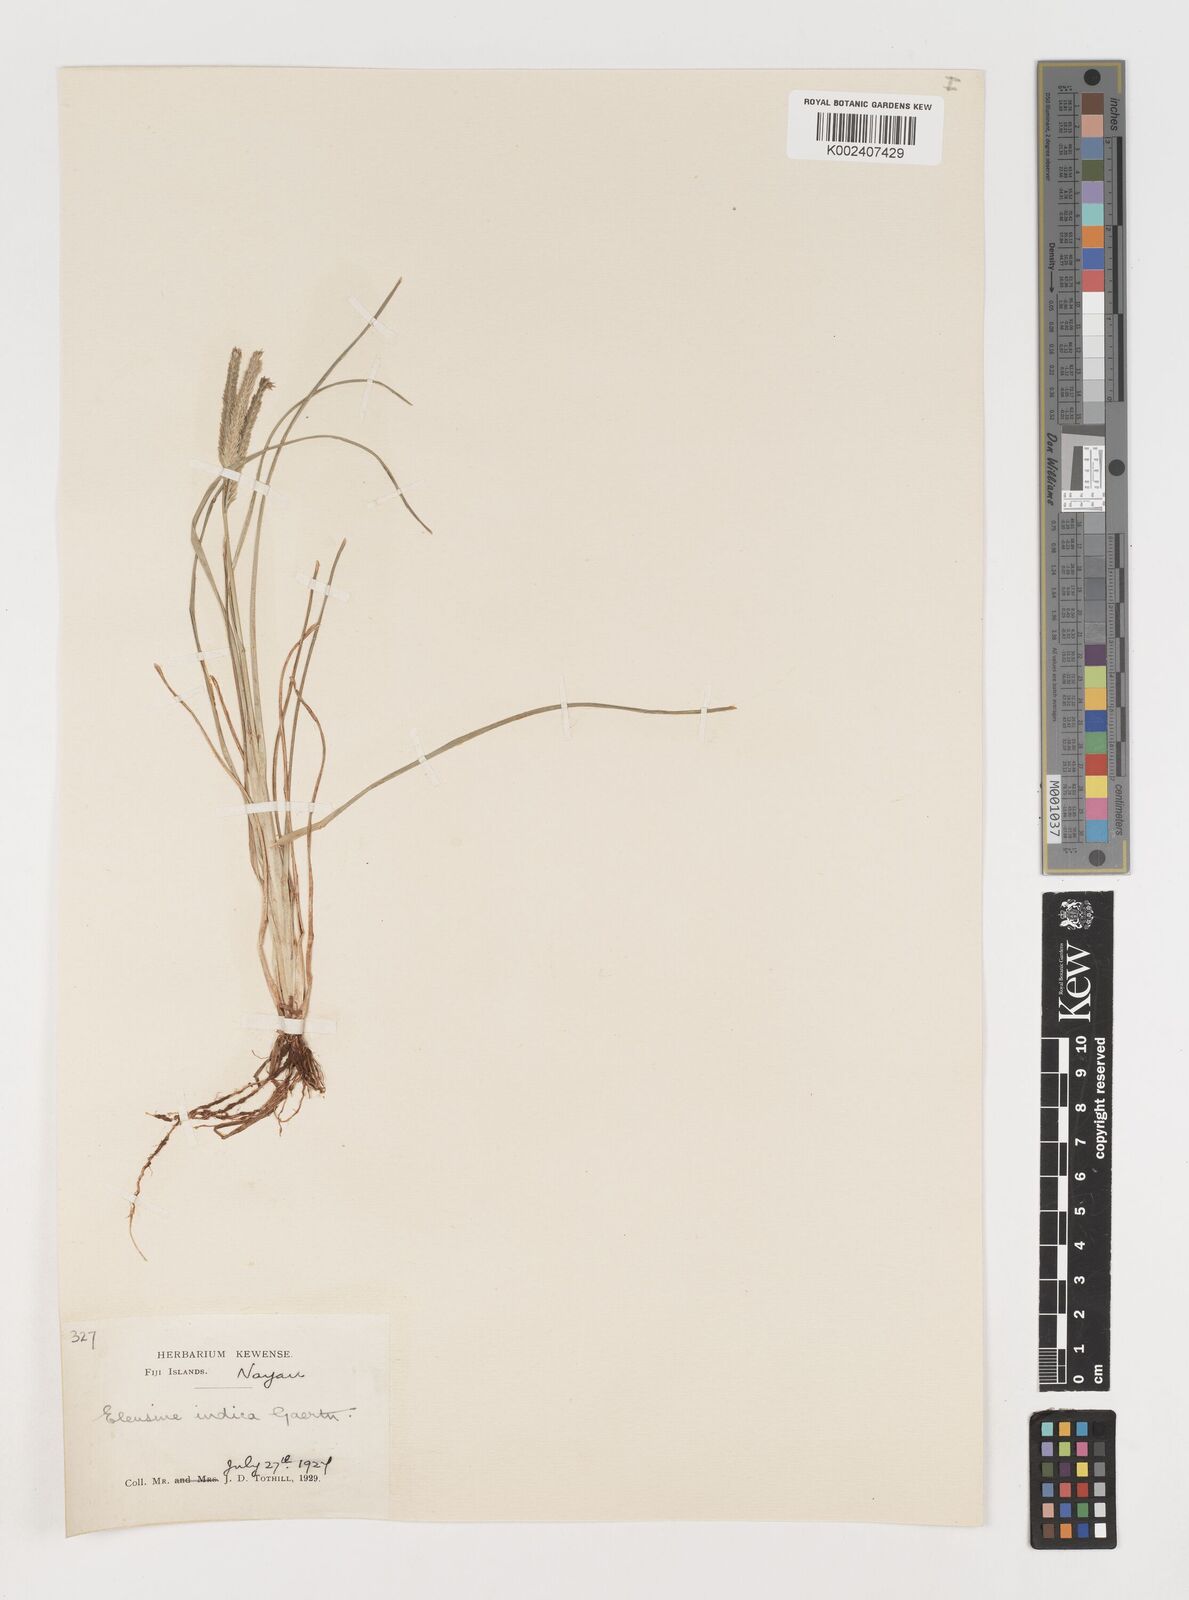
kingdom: Plantae
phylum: Tracheophyta
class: Liliopsida
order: Poales
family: Poaceae
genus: Eleusine
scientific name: Eleusine indica
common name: Yard-grass
